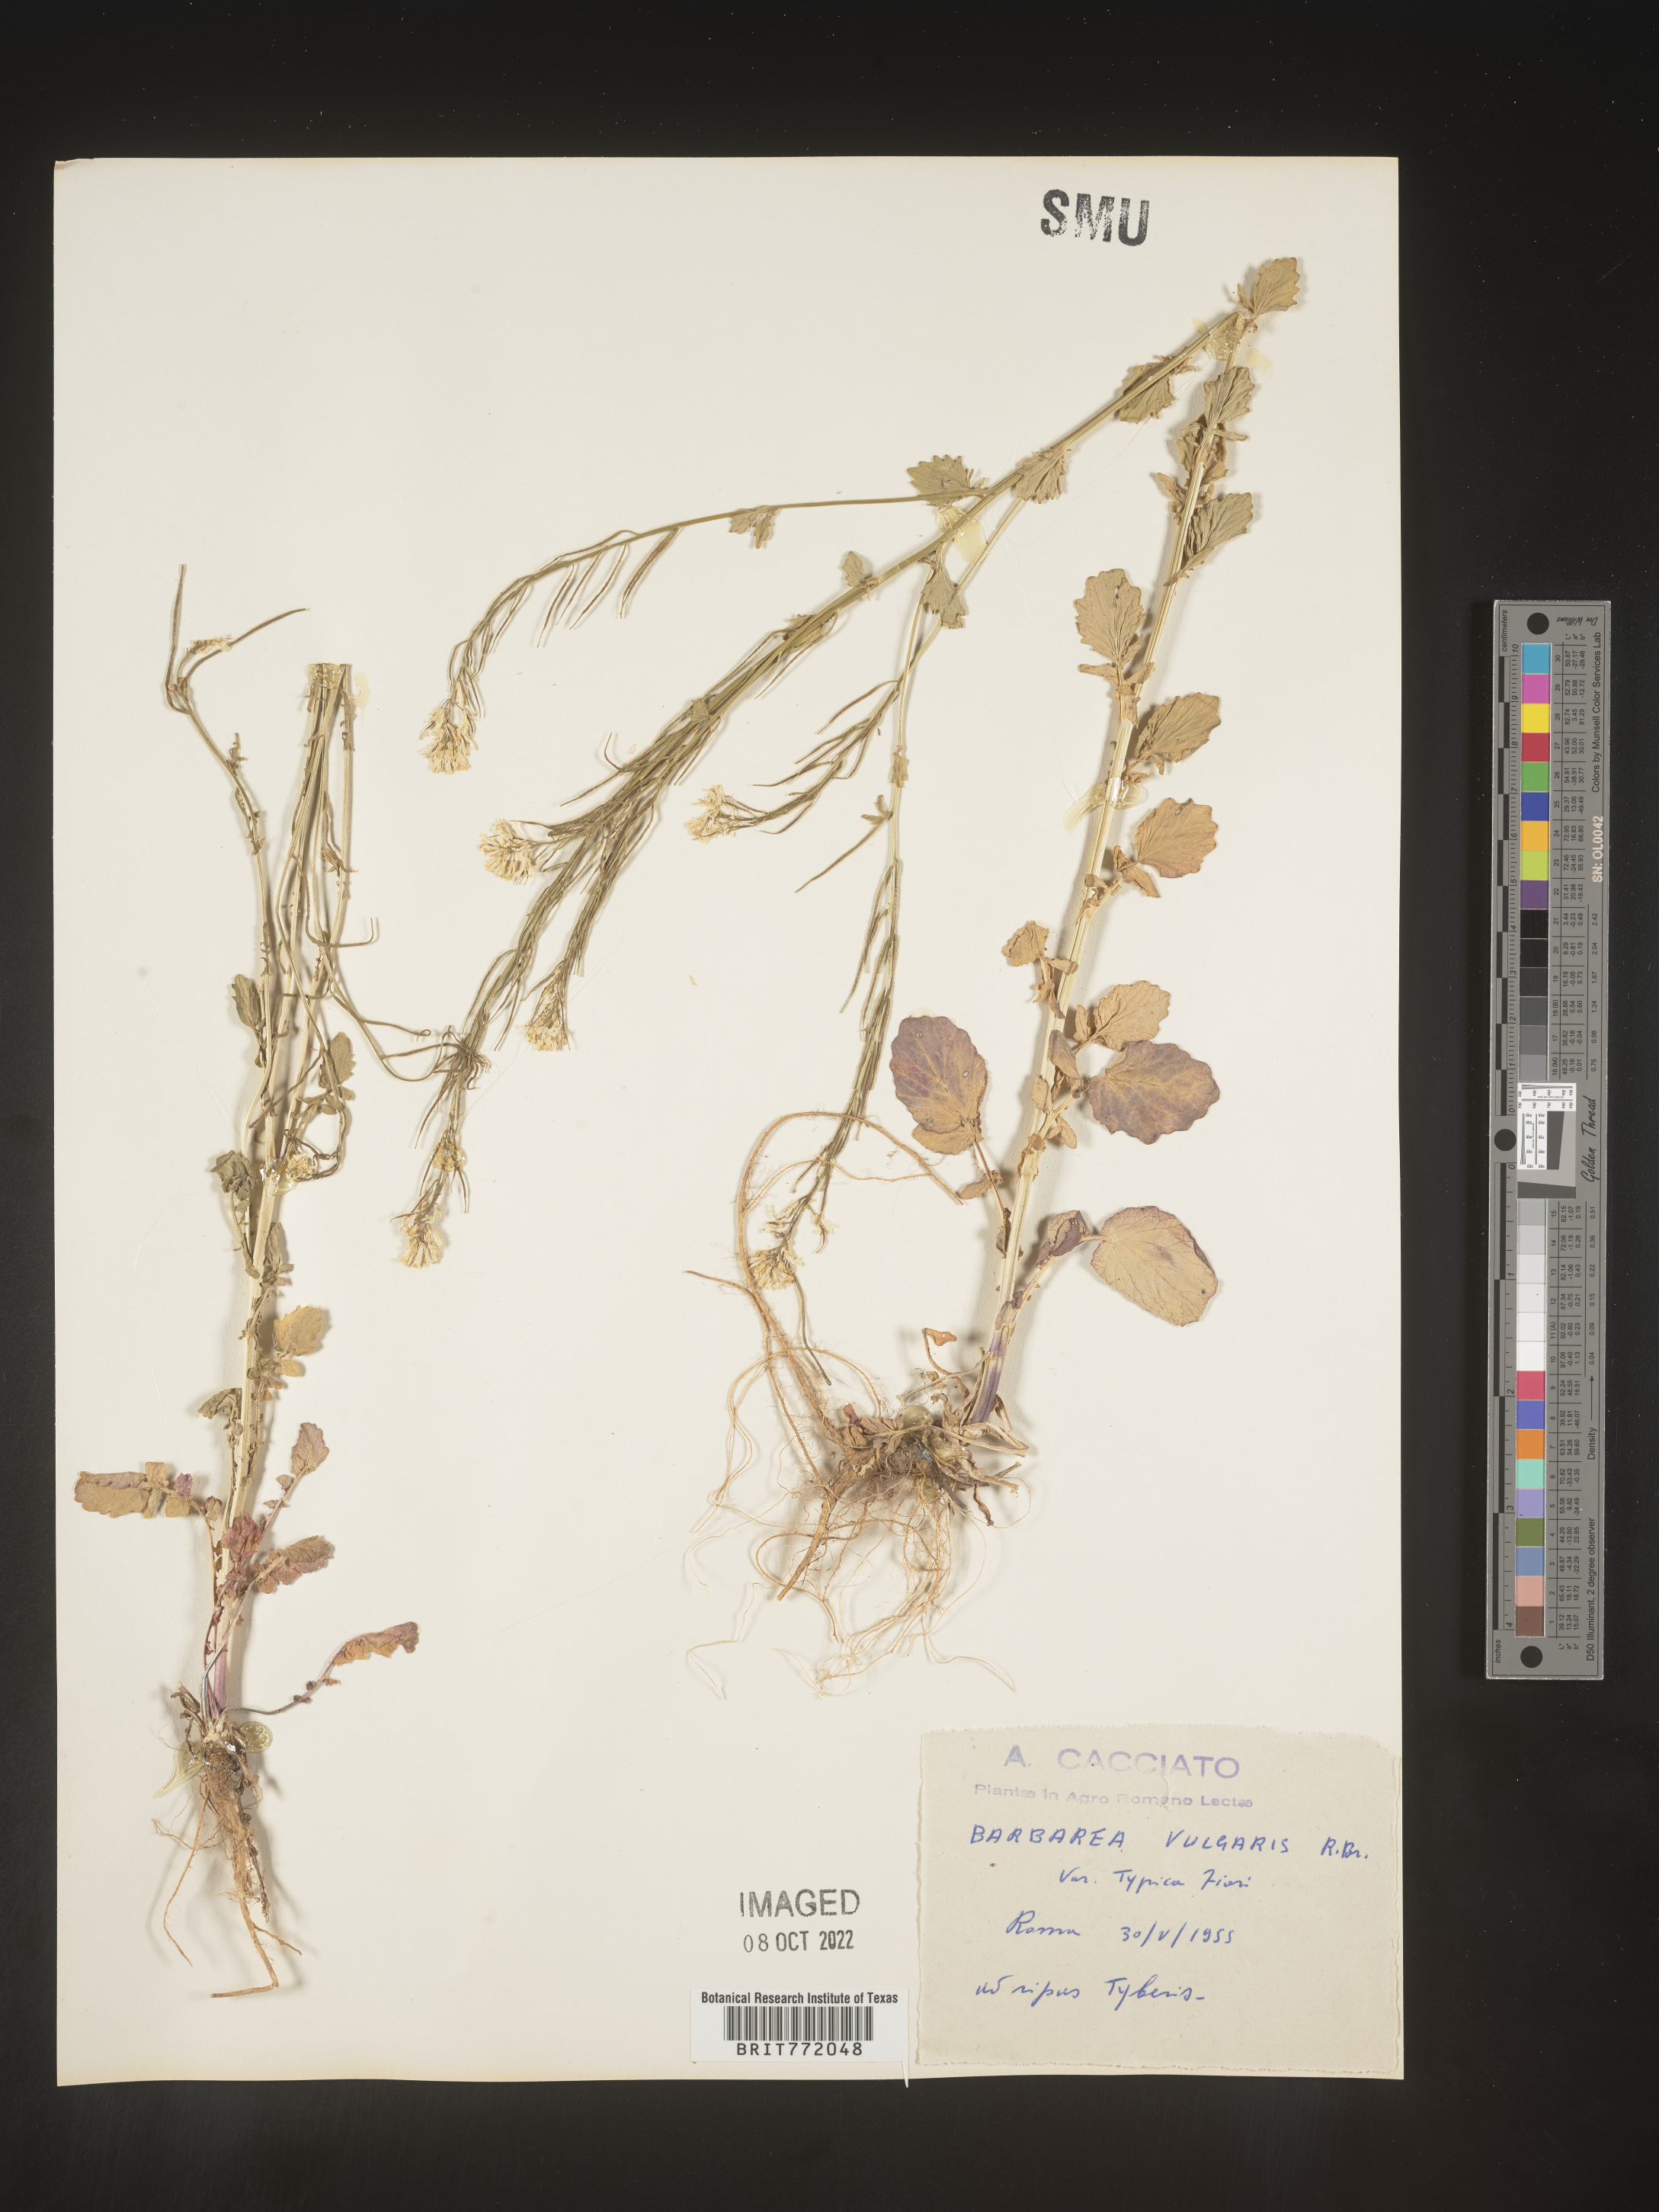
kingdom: Plantae
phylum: Tracheophyta
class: Magnoliopsida
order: Brassicales
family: Brassicaceae
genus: Barbarea
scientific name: Barbarea
